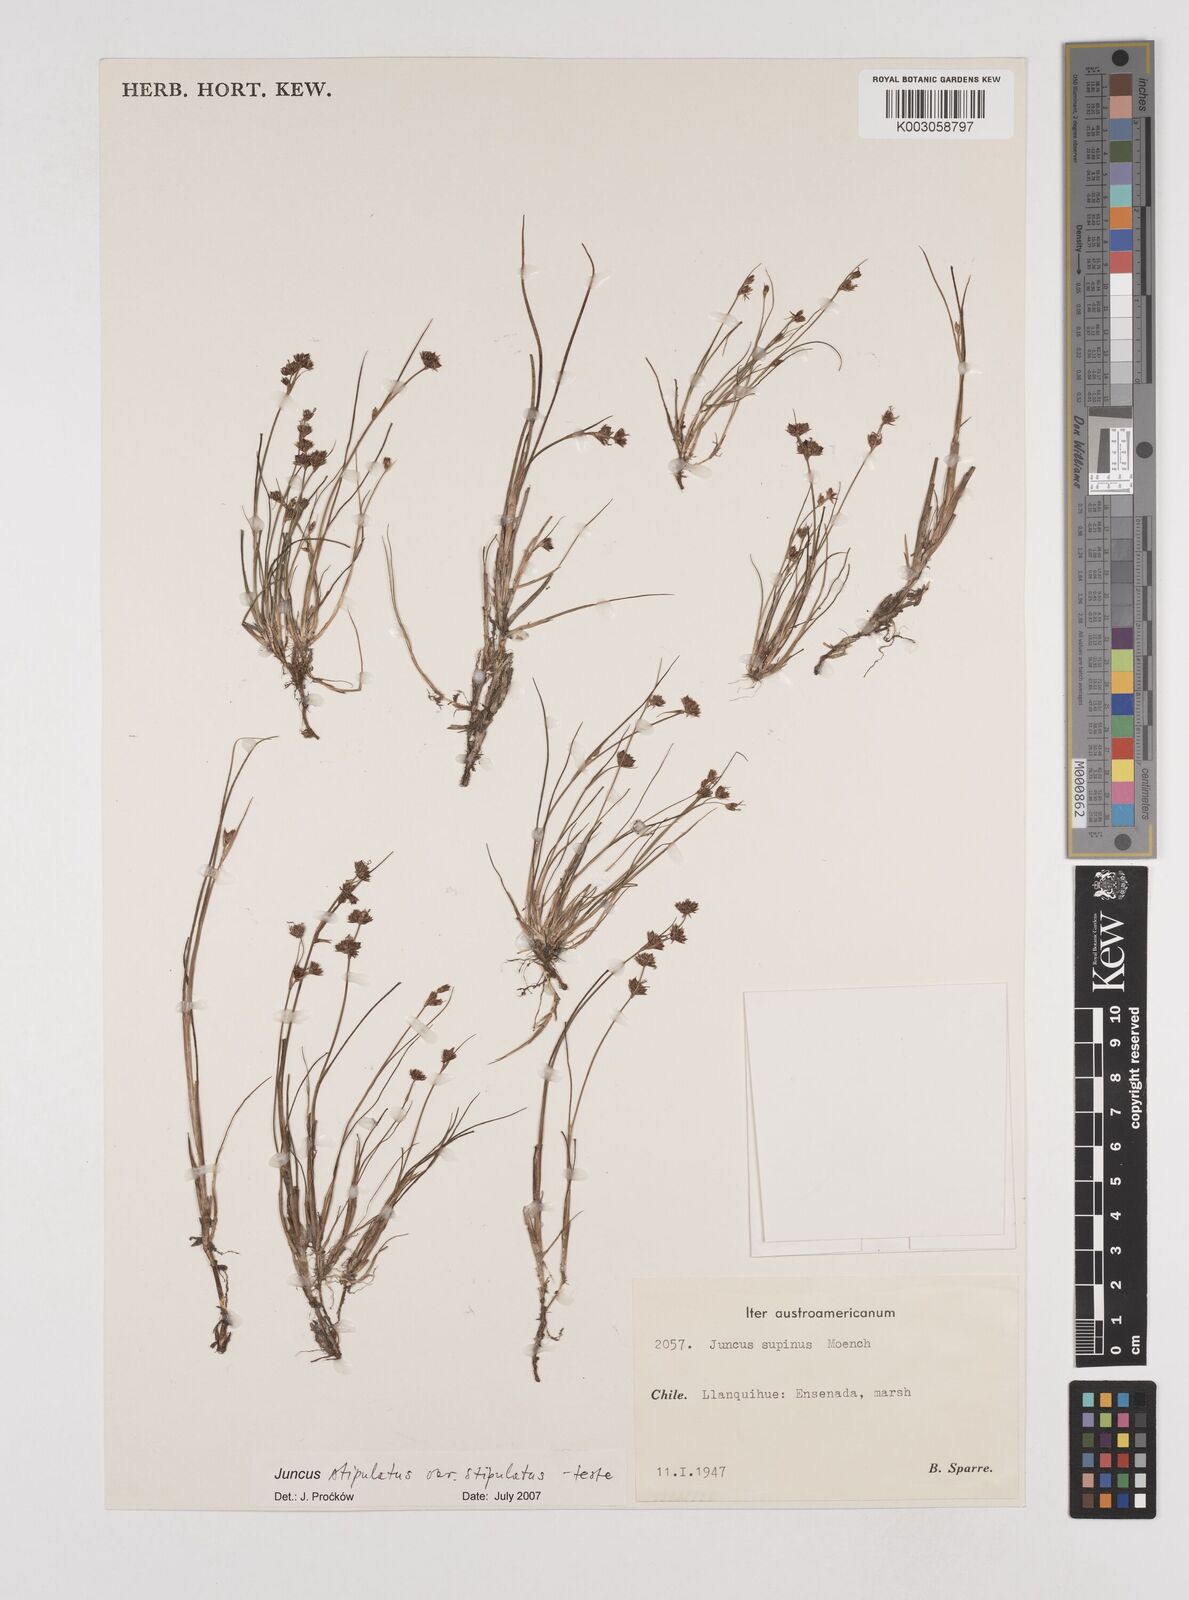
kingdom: Plantae
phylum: Tracheophyta
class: Liliopsida
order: Poales
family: Juncaceae
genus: Juncus
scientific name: Juncus scheuchzerioides
